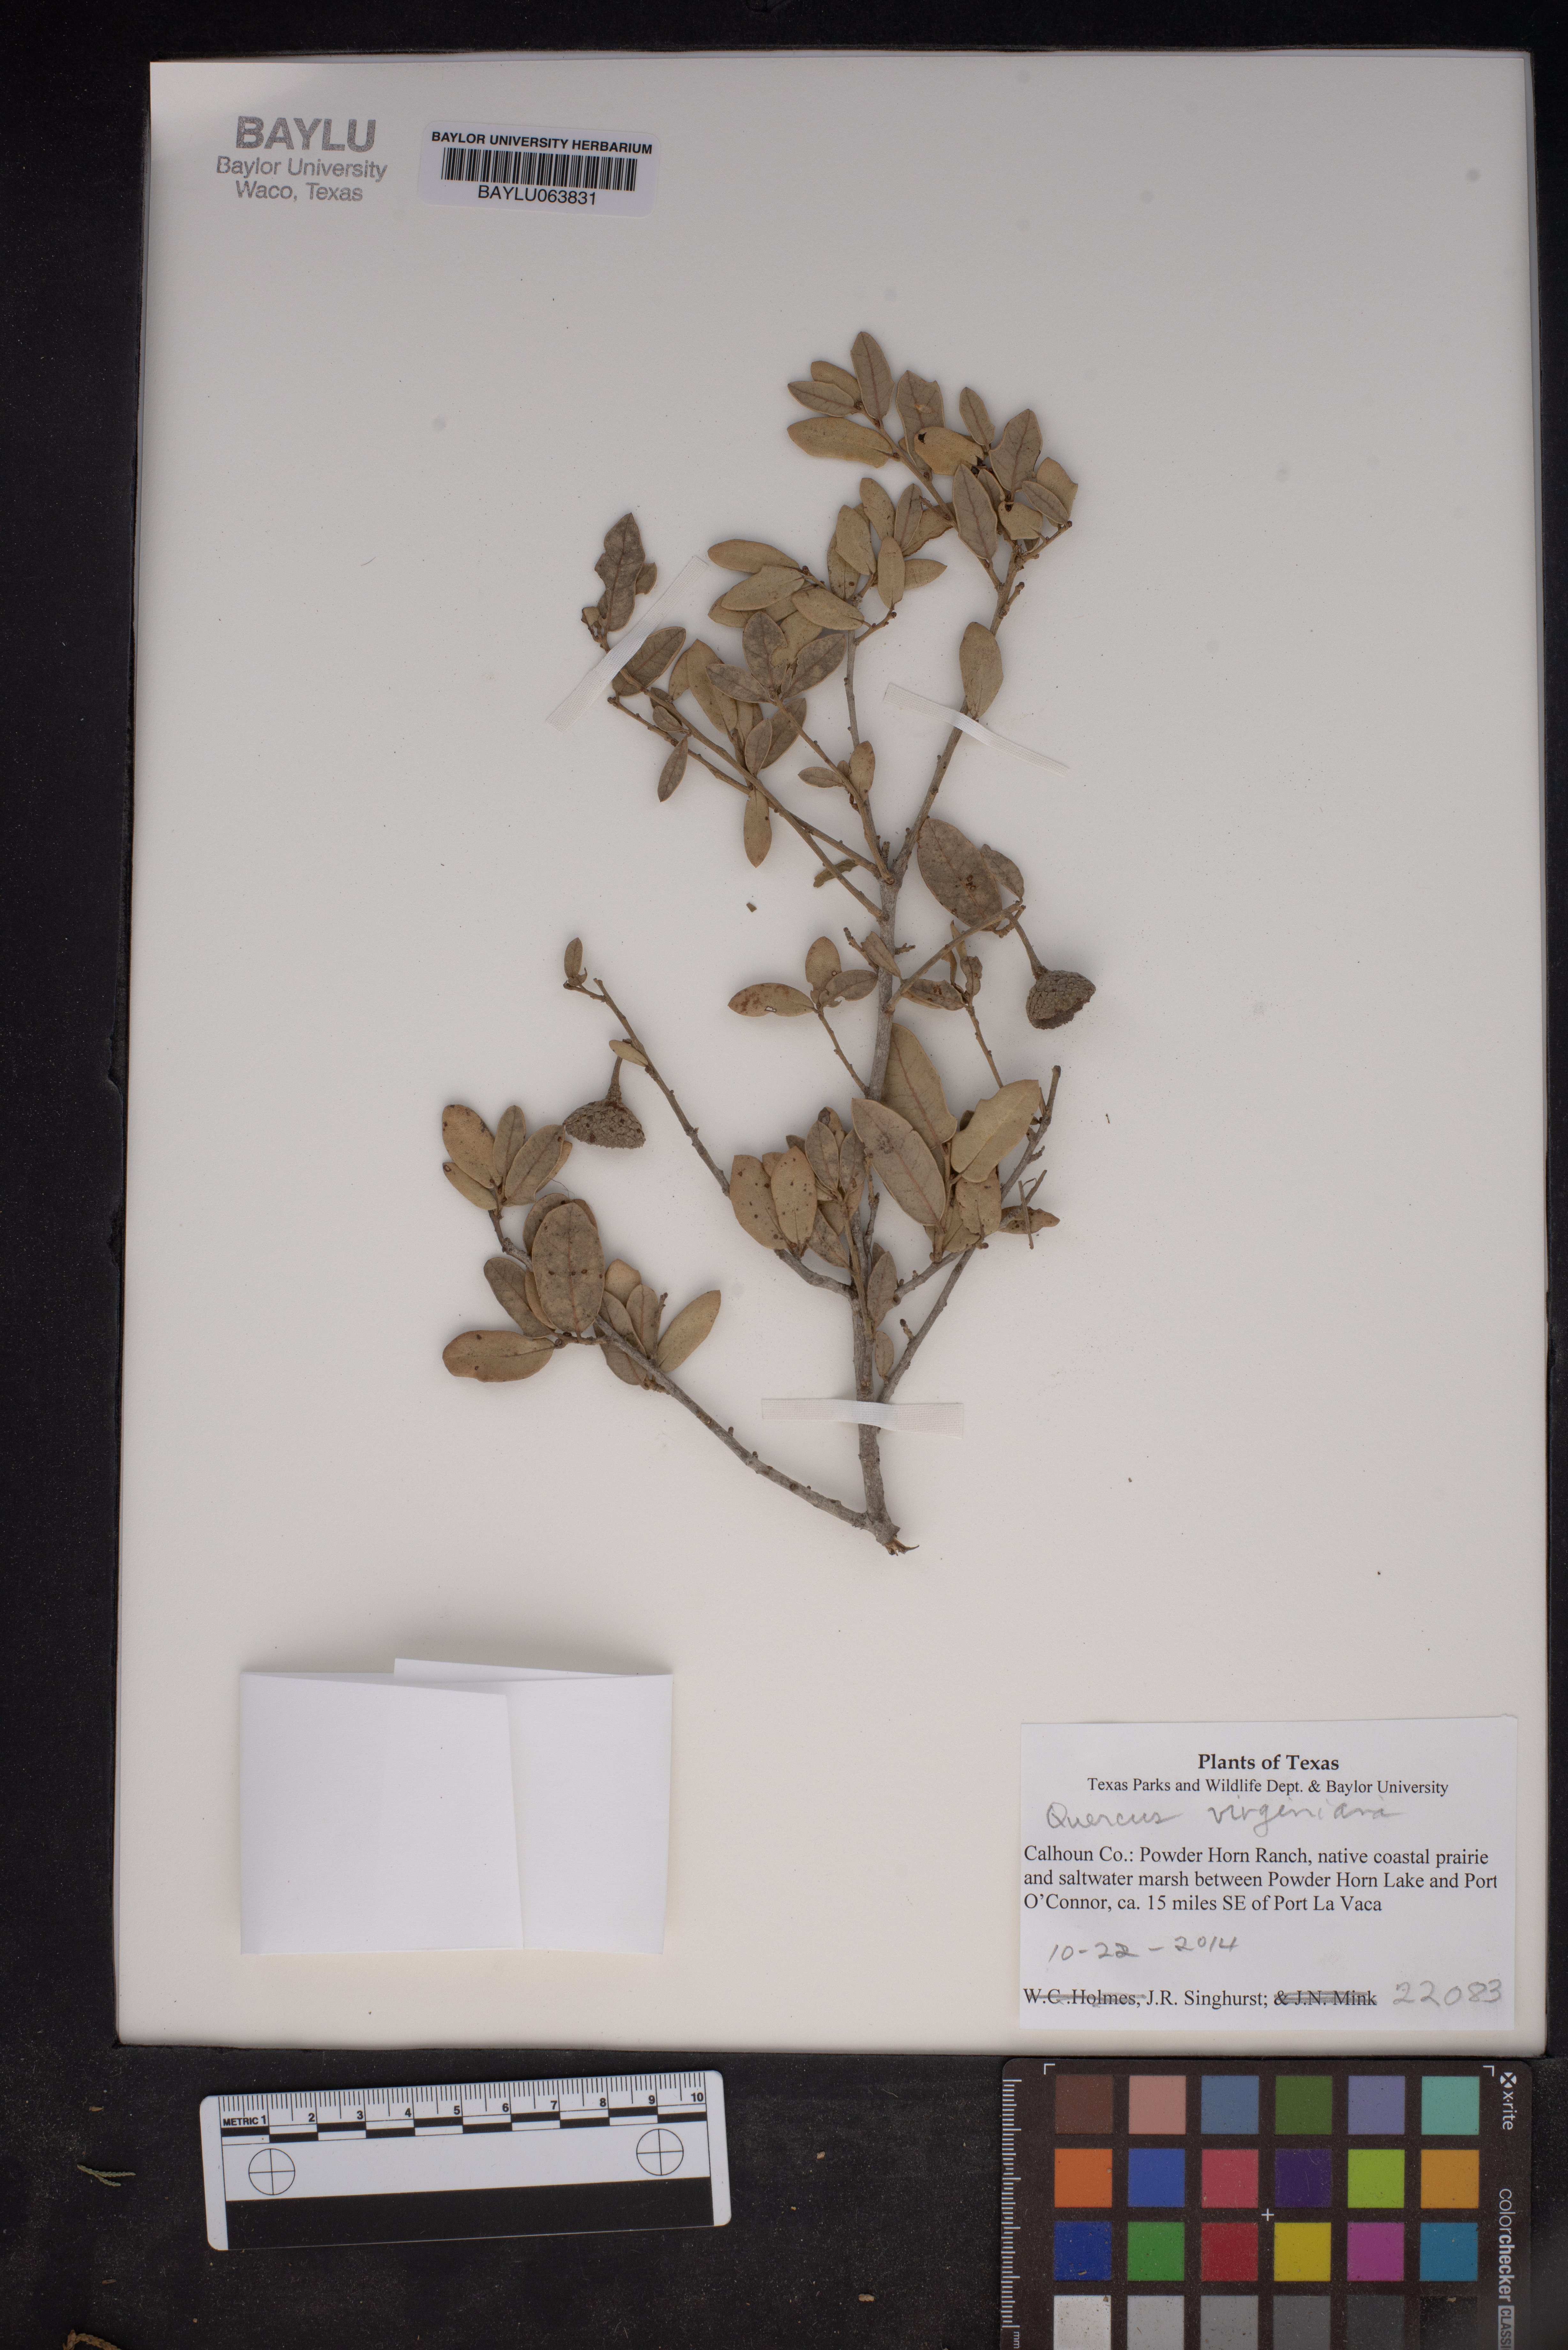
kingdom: Plantae
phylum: Tracheophyta
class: Magnoliopsida
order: Fagales
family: Fagaceae
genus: Quercus
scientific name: Quercus virginiana
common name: Southern live oak
